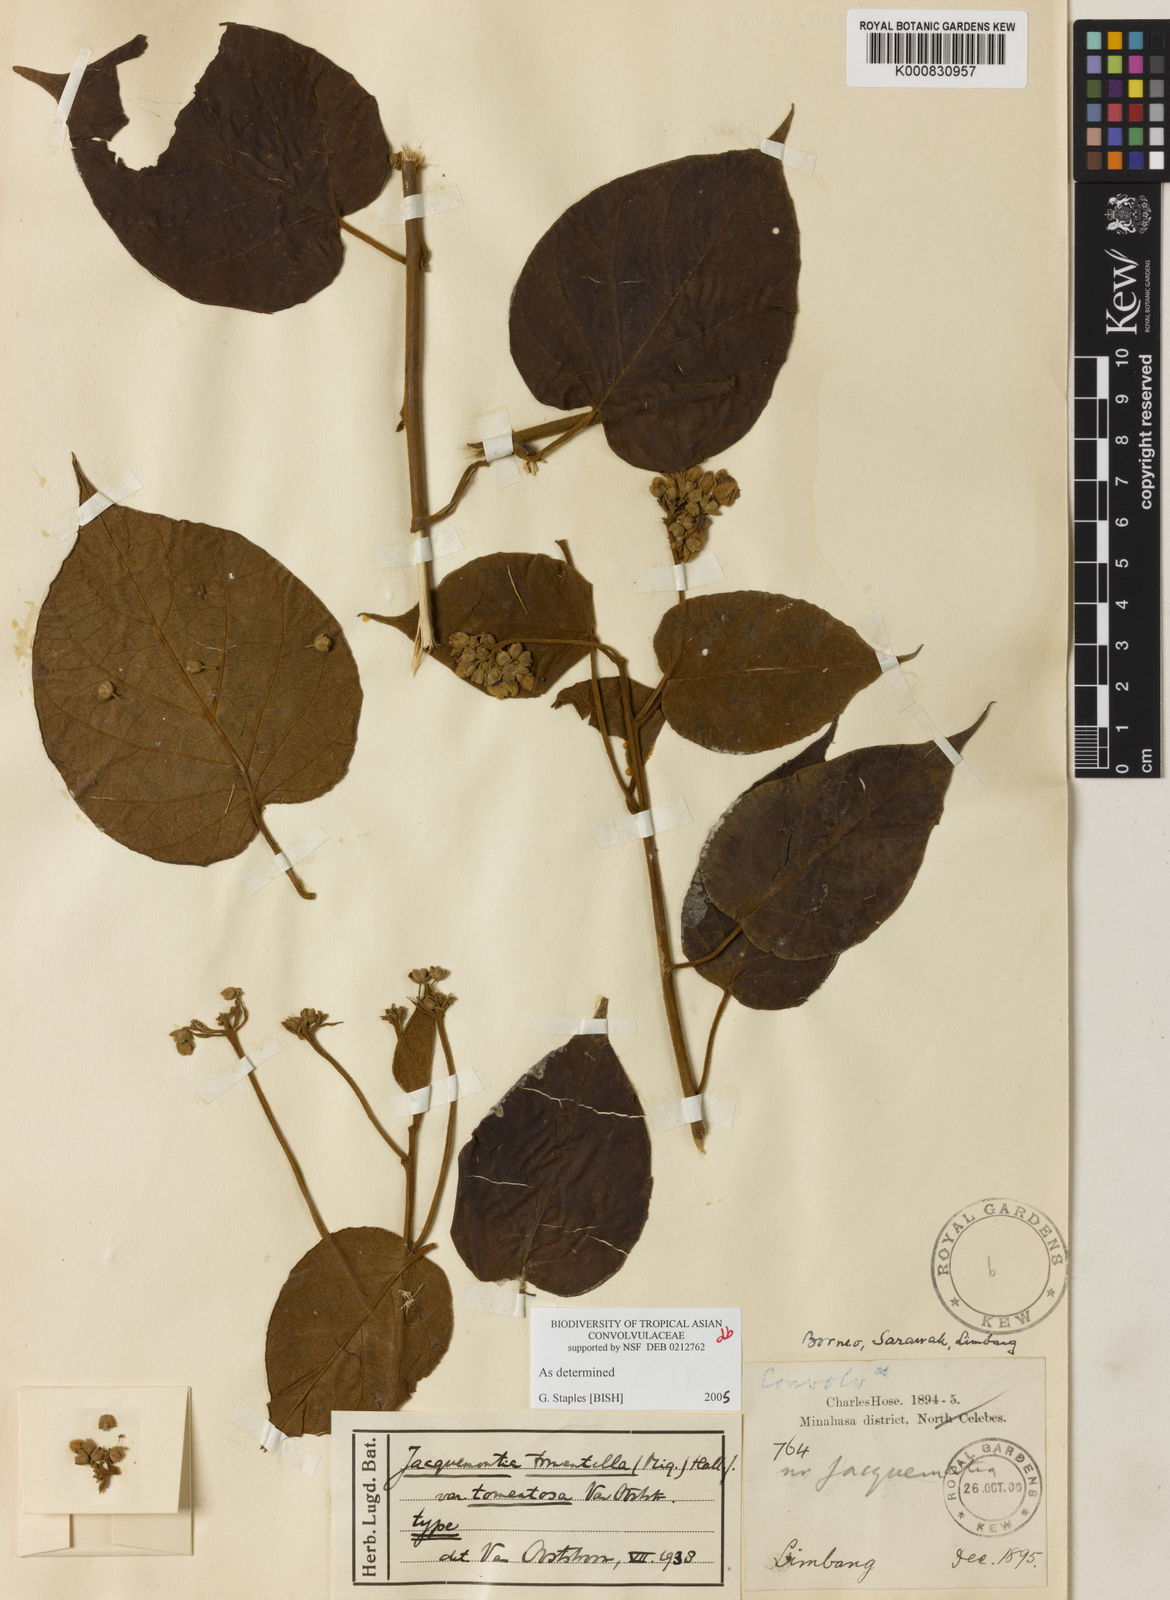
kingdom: Plantae
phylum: Tracheophyta
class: Magnoliopsida
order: Solanales
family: Convolvulaceae
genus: Jacquemontia
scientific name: Jacquemontia tomentella
